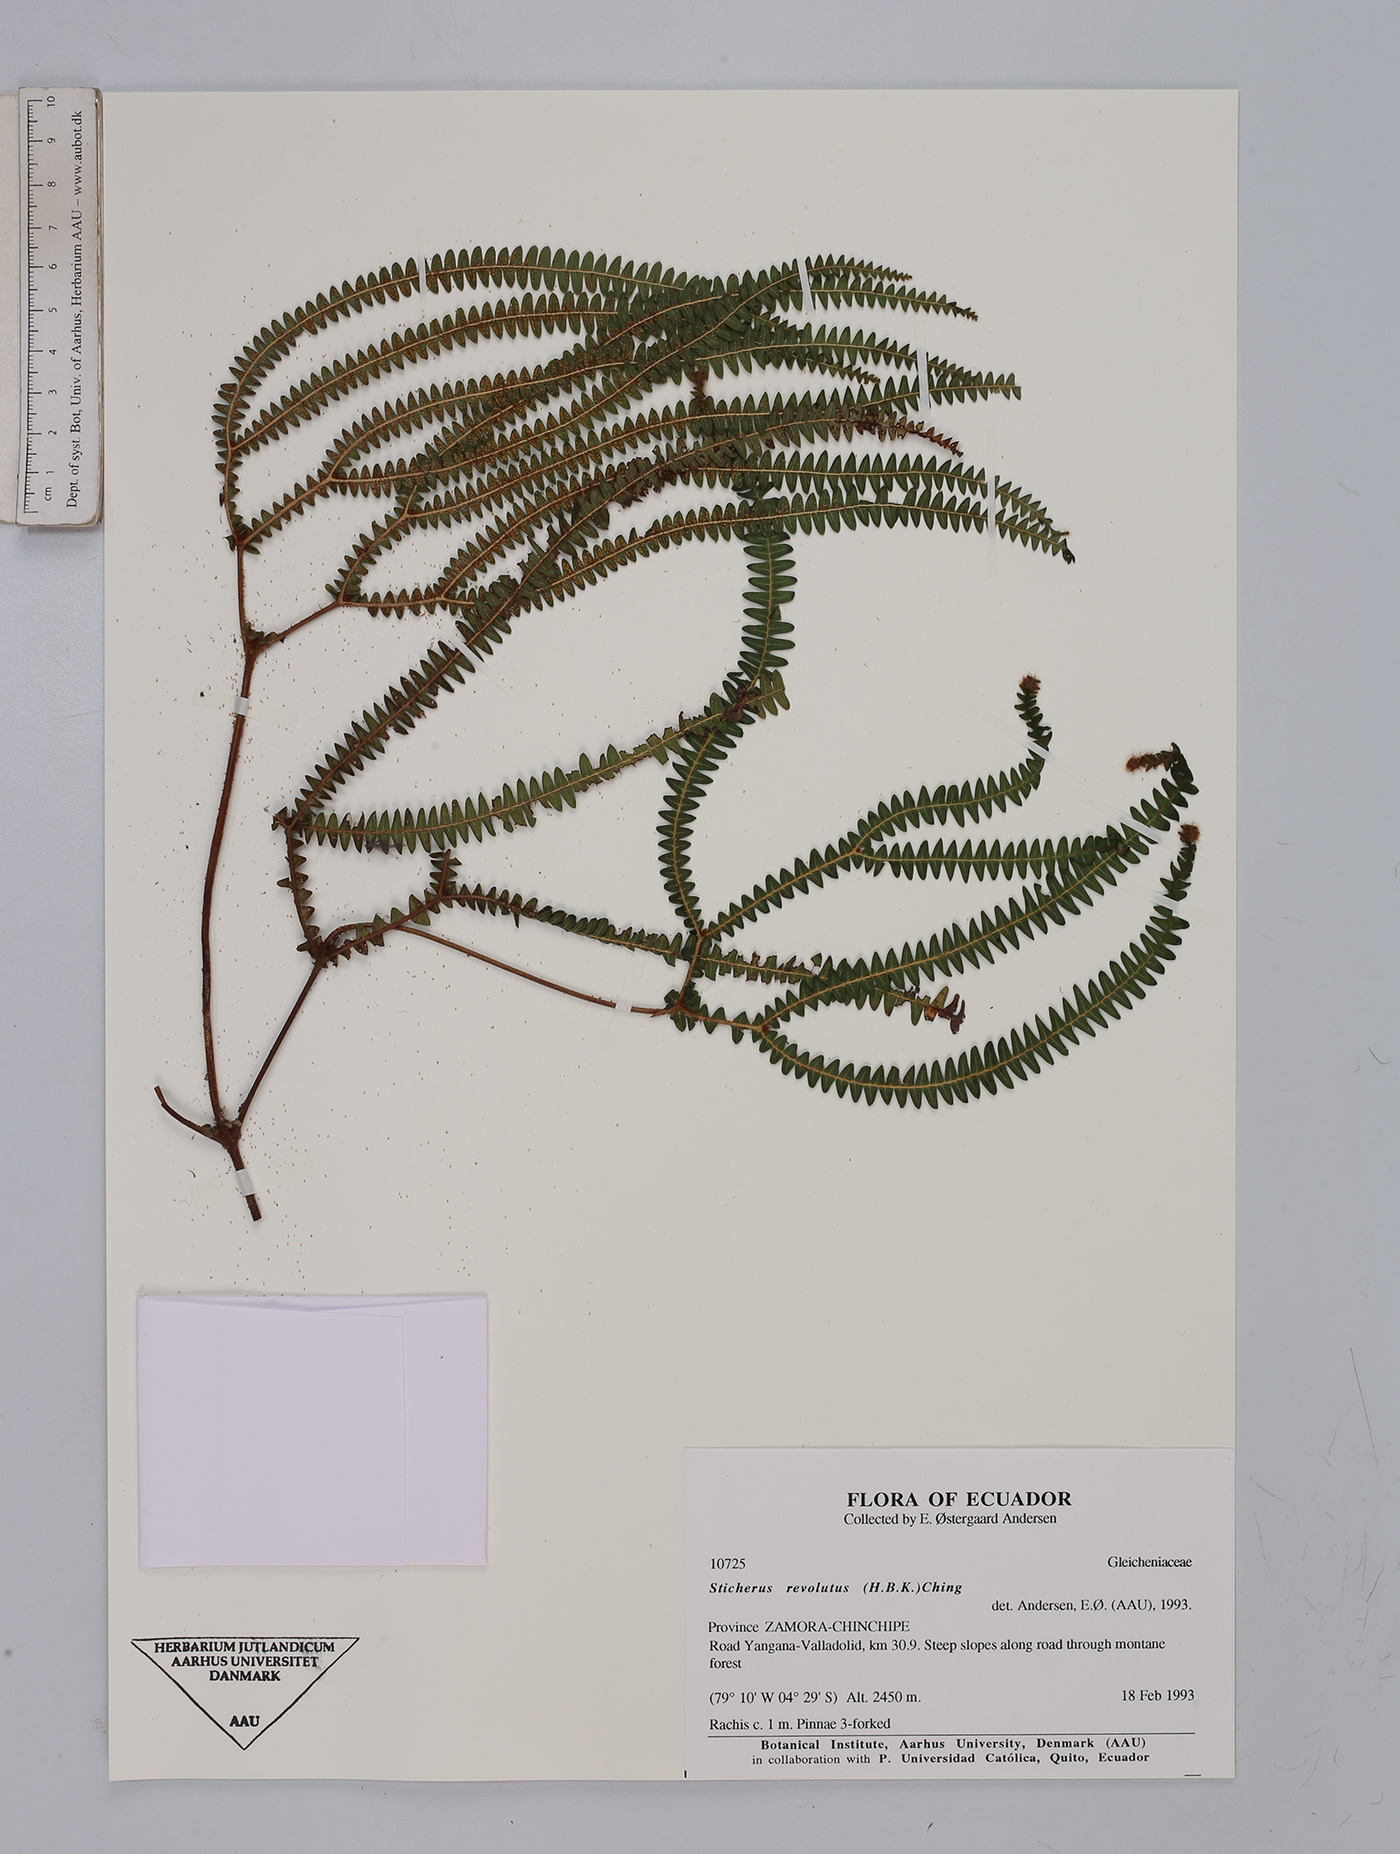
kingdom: Plantae
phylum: Tracheophyta
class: Polypodiopsida
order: Gleicheniales
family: Gleicheniaceae
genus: Sticherus
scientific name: Sticherus revolutus
